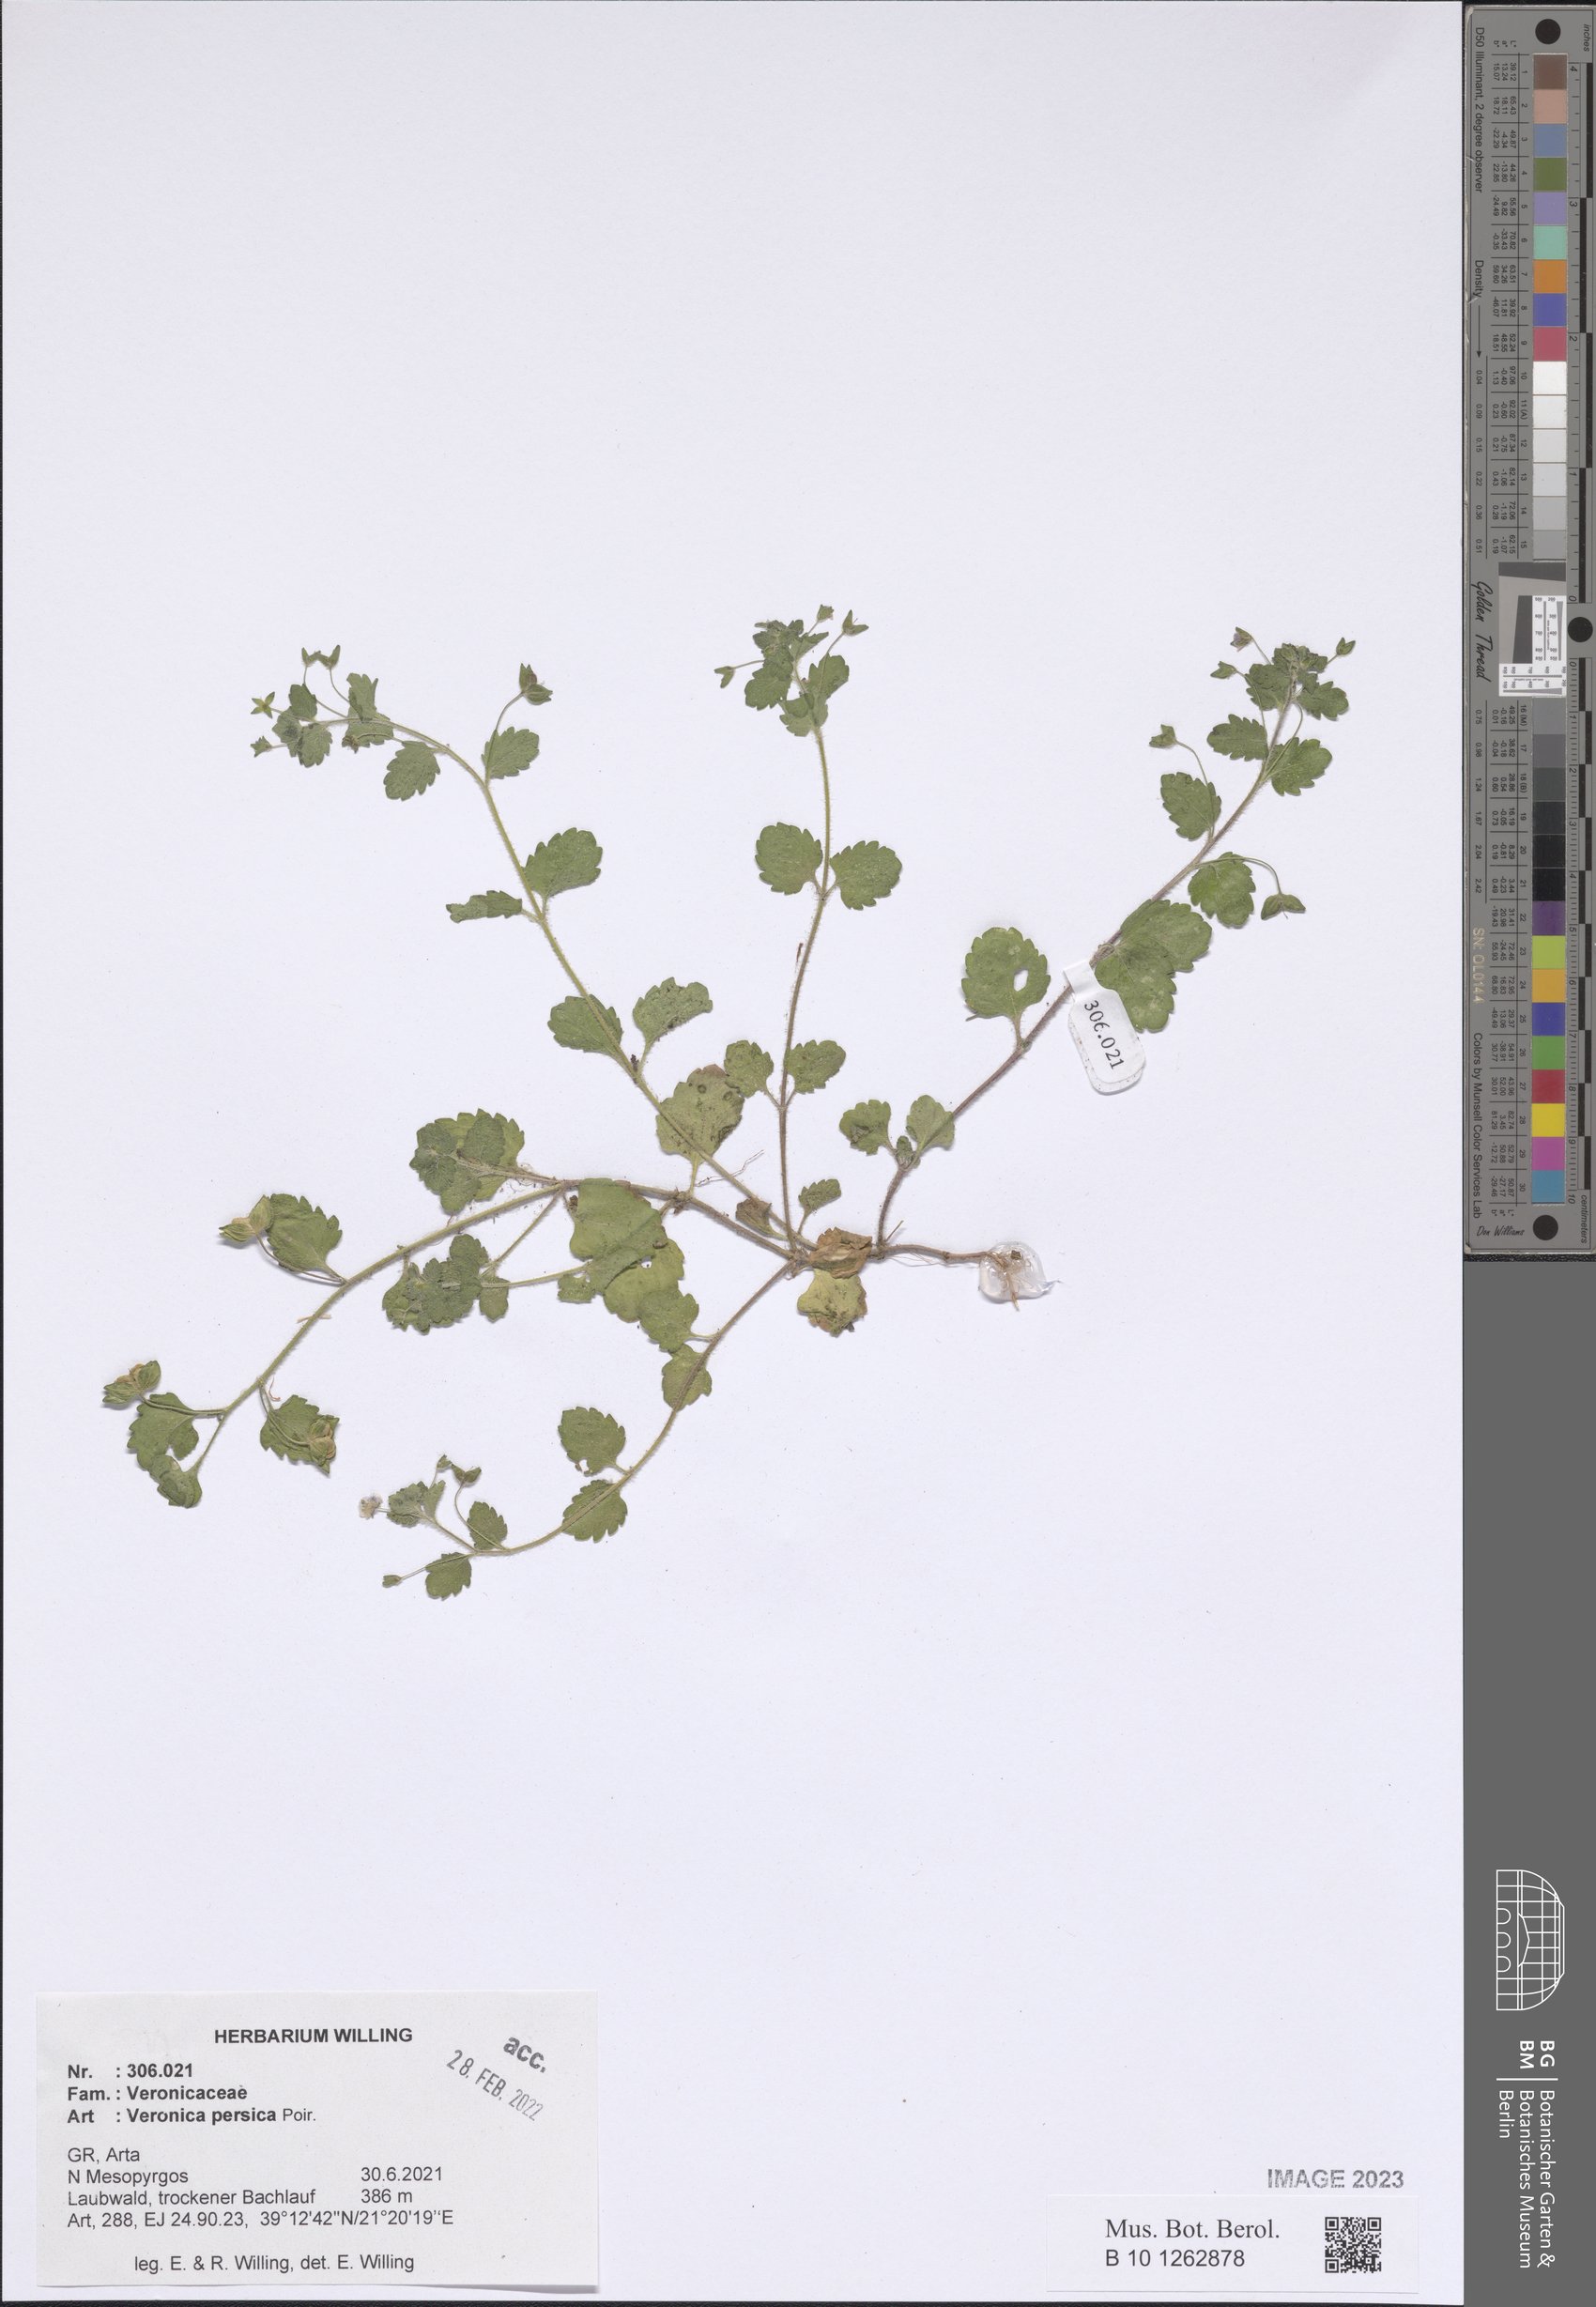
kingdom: Plantae
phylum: Tracheophyta
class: Magnoliopsida
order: Lamiales
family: Plantaginaceae
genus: Veronica
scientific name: Veronica persica
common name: Common field-speedwell
